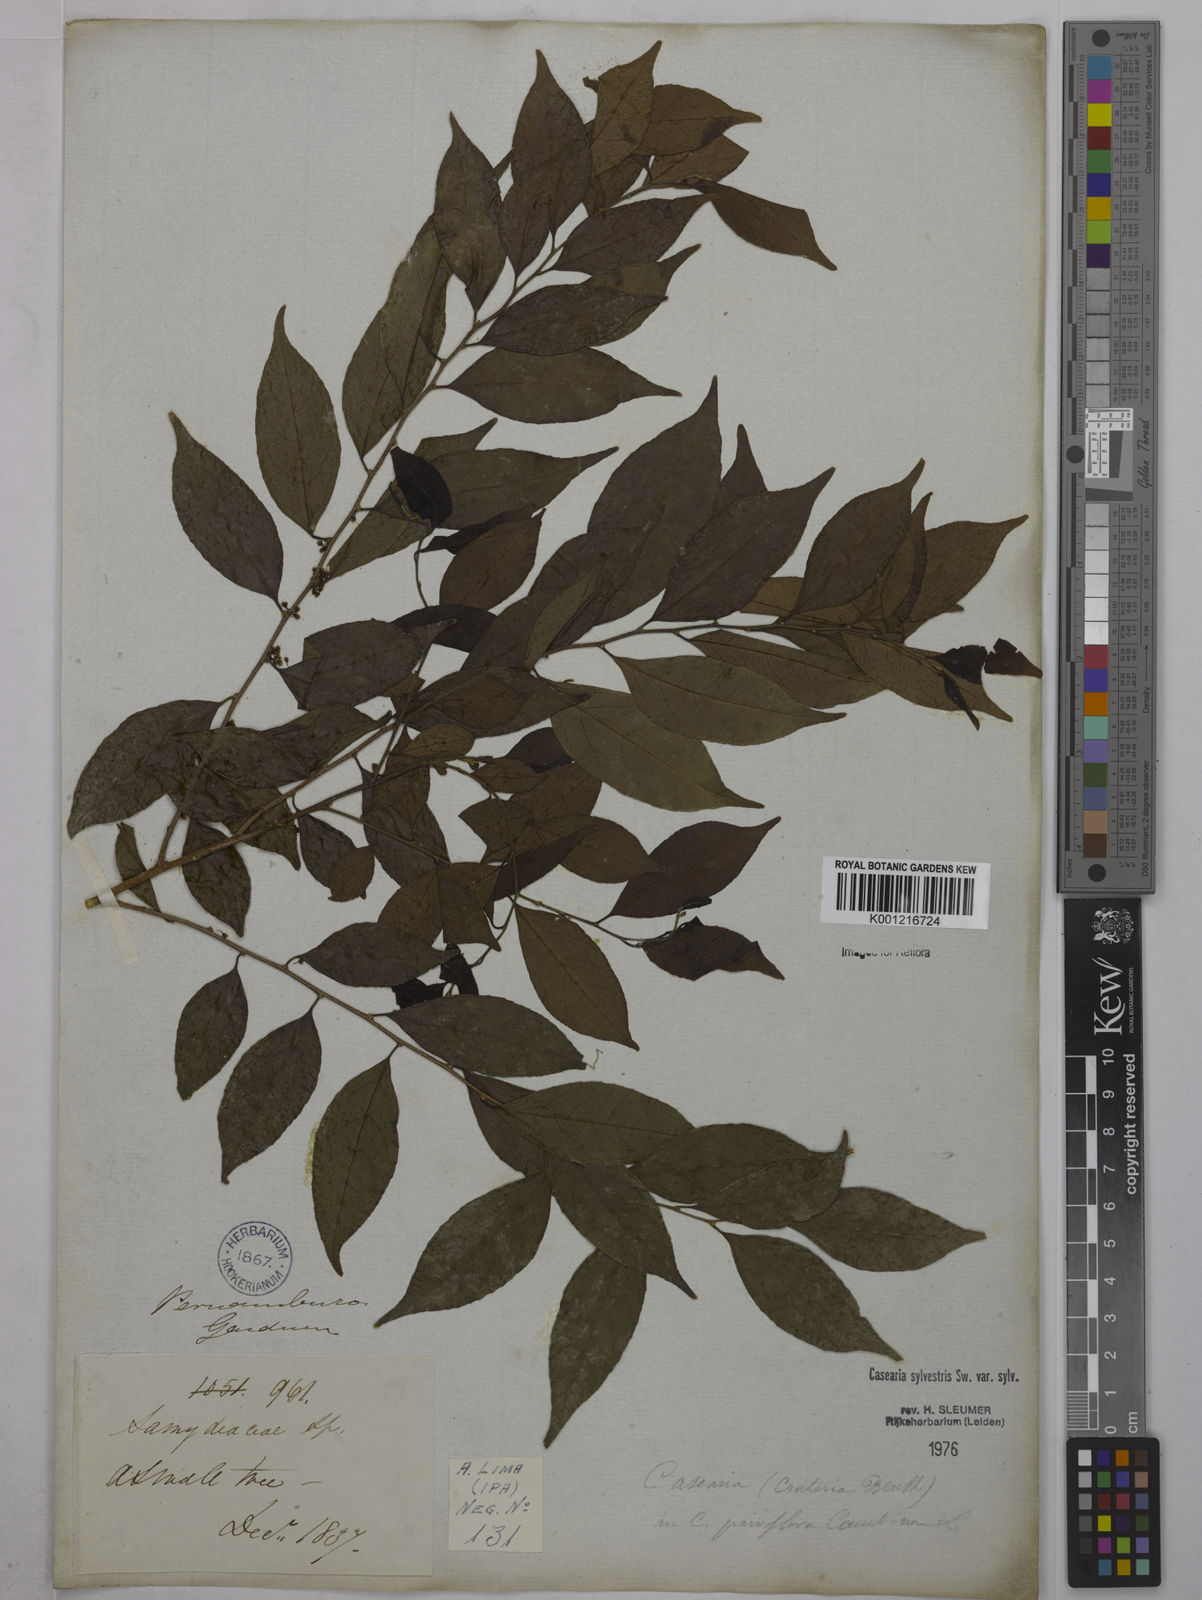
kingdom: Plantae
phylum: Tracheophyta
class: Magnoliopsida
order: Malpighiales
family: Salicaceae
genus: Casearia
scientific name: Casearia sylvestris
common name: Wild sage
